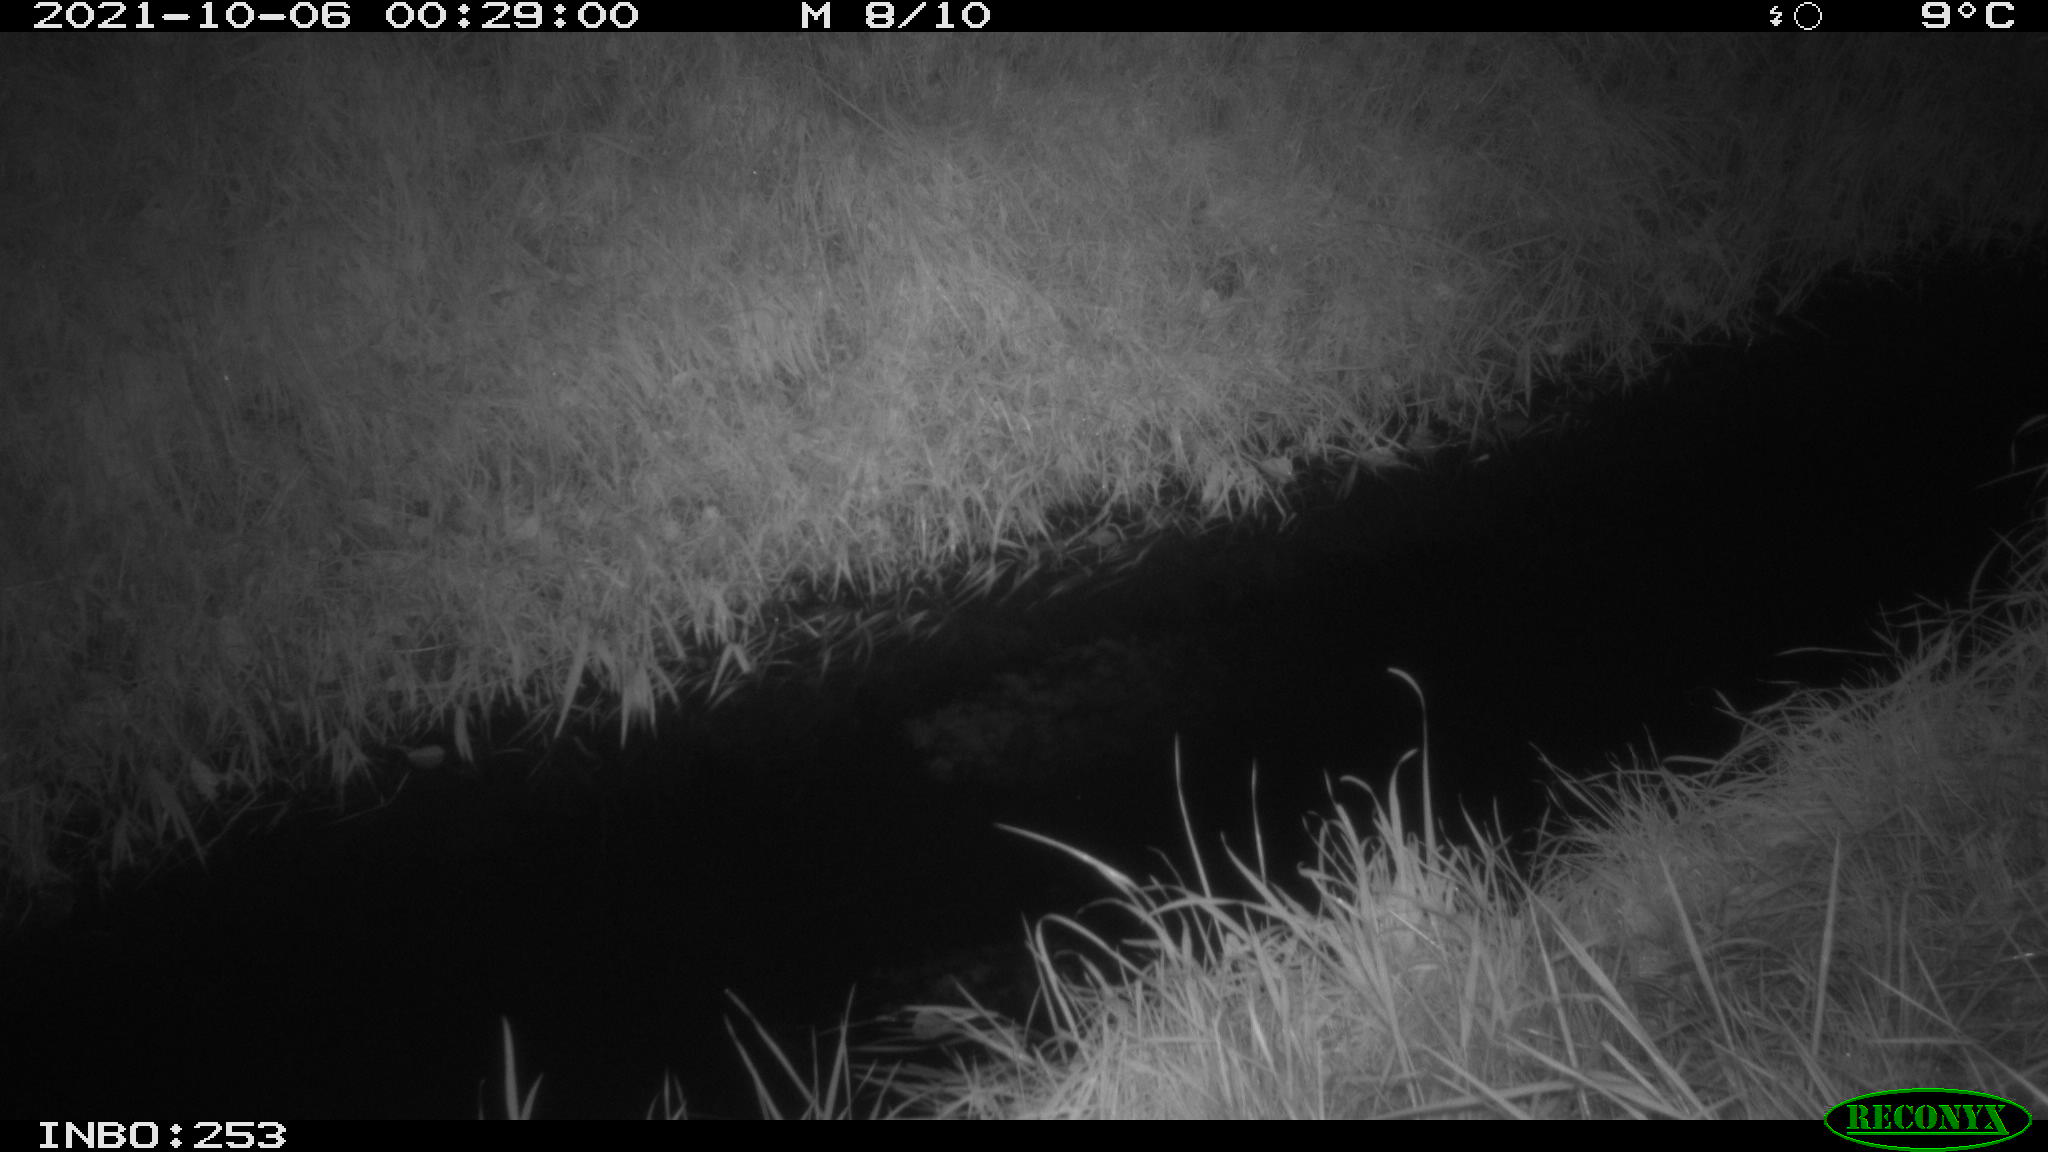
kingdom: Animalia
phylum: Chordata
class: Mammalia
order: Artiodactyla
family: Cervidae
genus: Capreolus
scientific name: Capreolus capreolus
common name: Western roe deer
